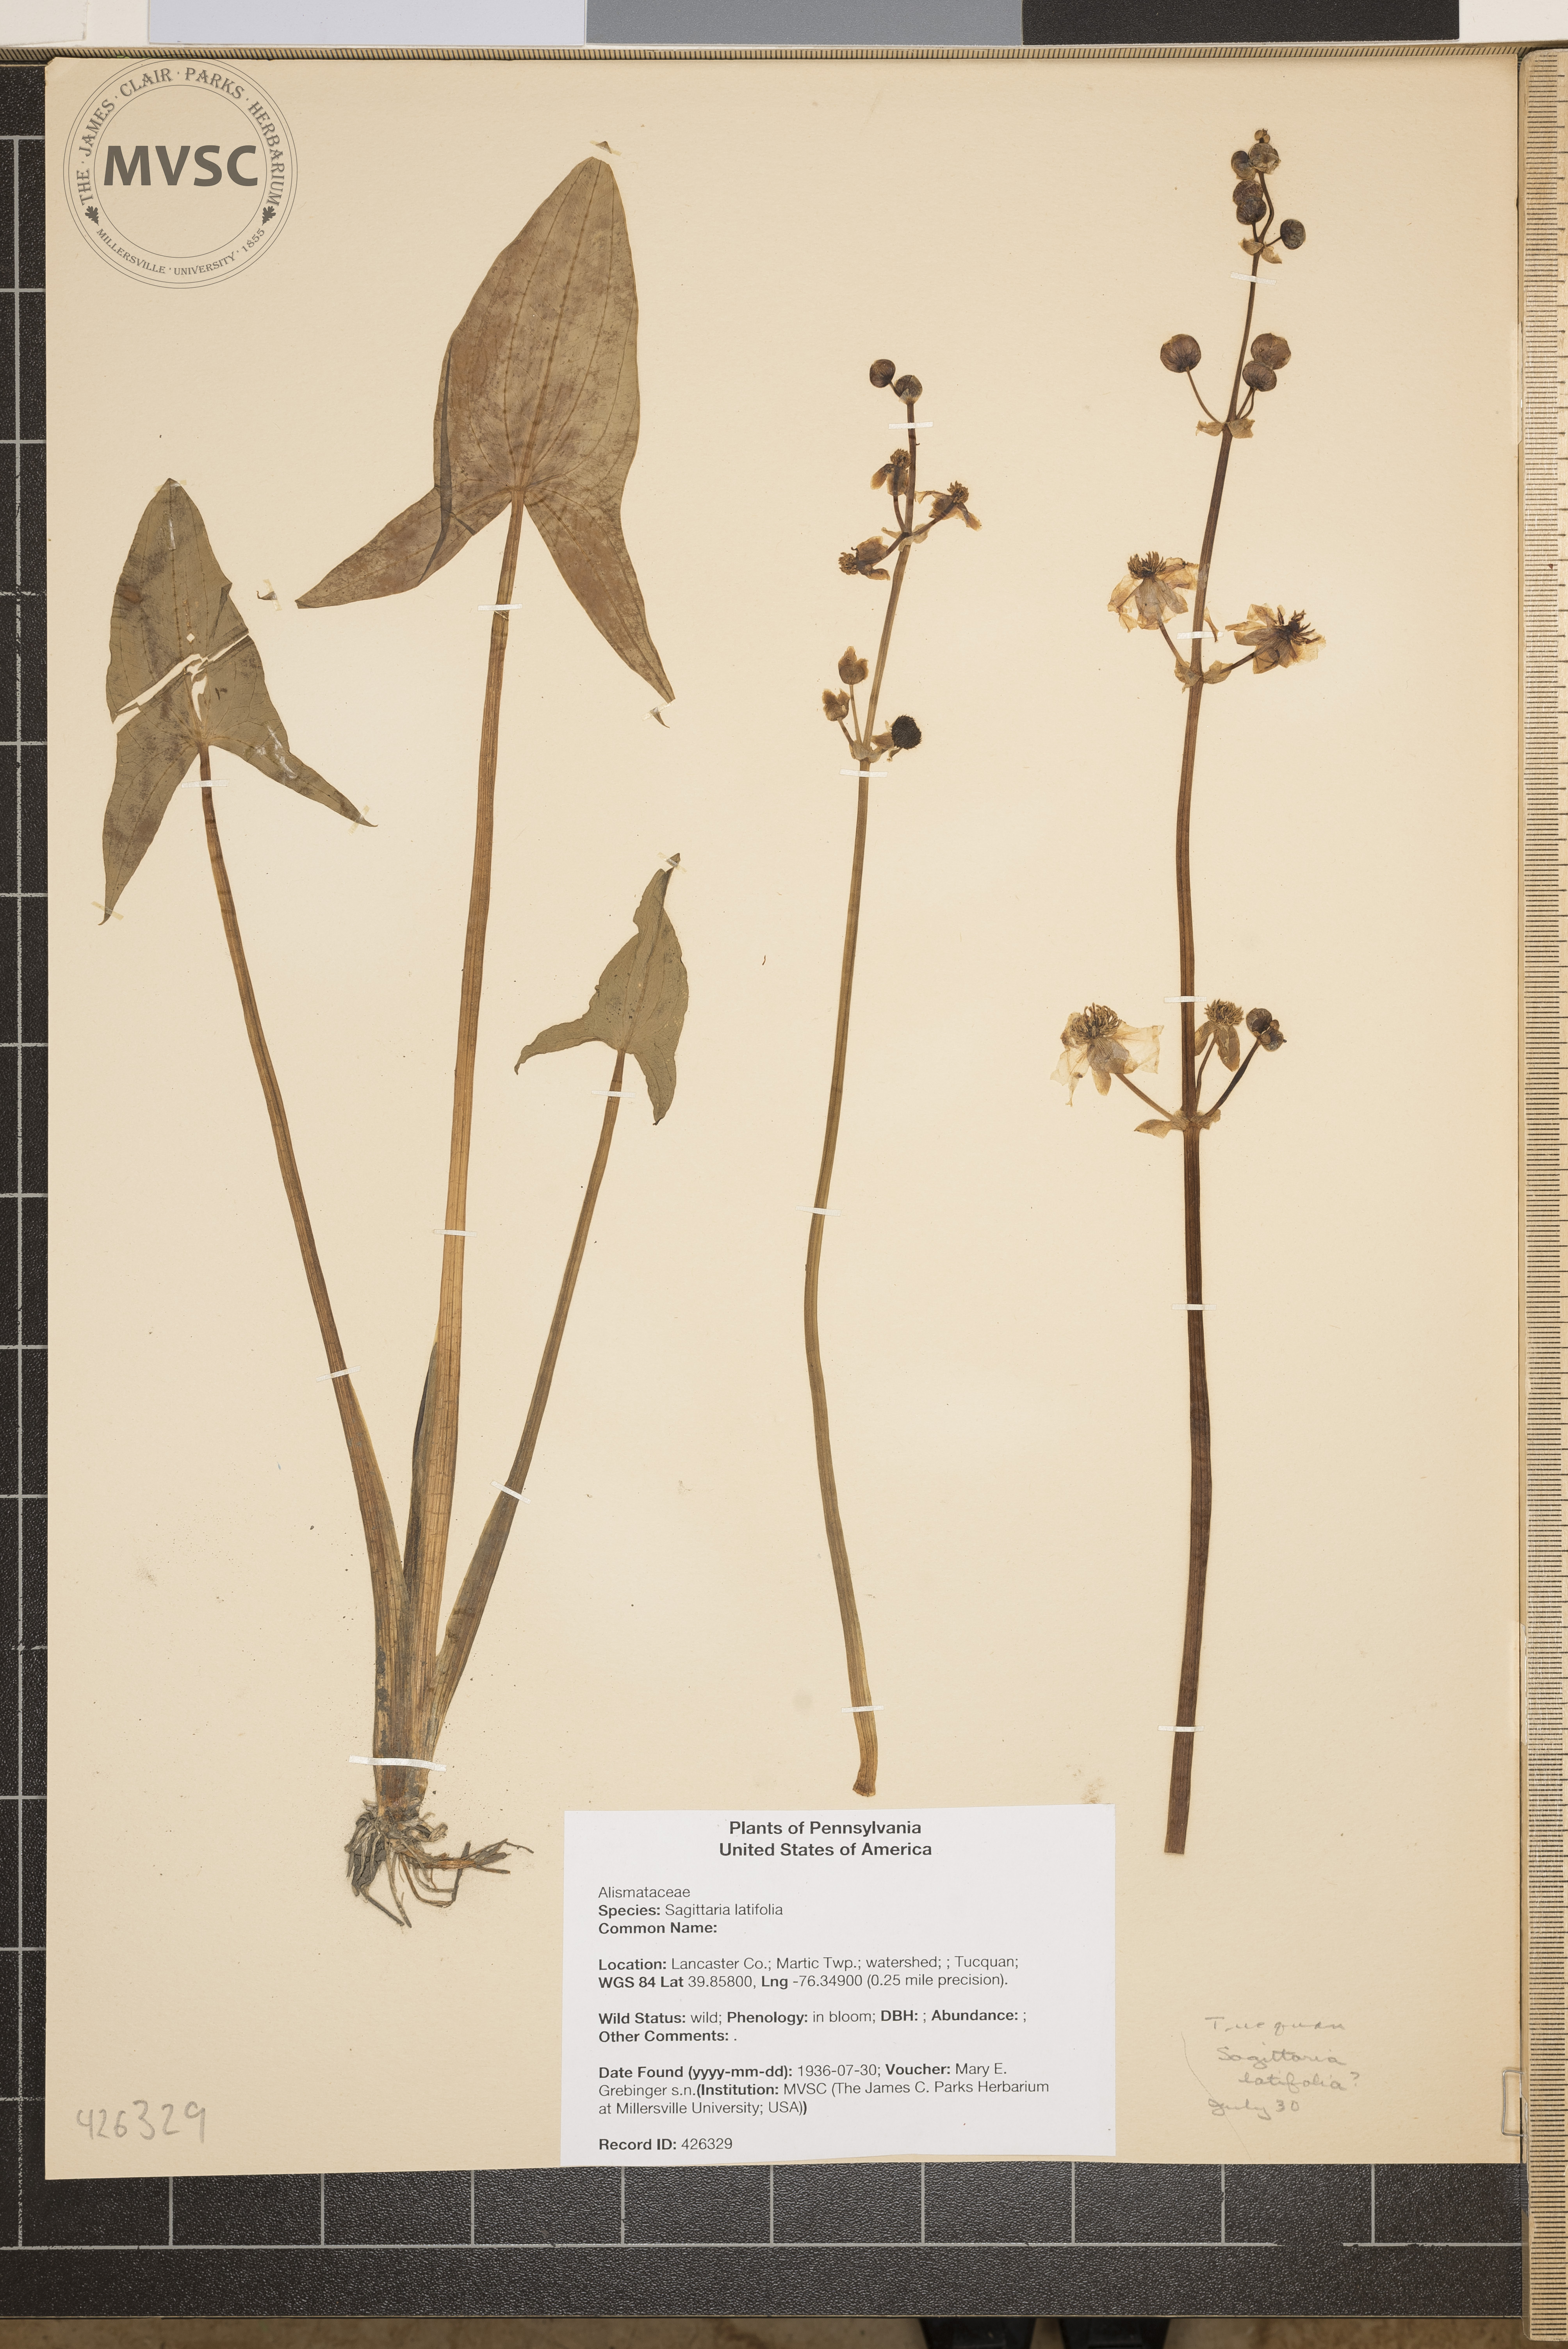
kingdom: Plantae
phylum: Tracheophyta
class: Liliopsida
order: Alismatales
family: Alismataceae
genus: Sagittaria
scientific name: Sagittaria latifolia
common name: Duck-potato
